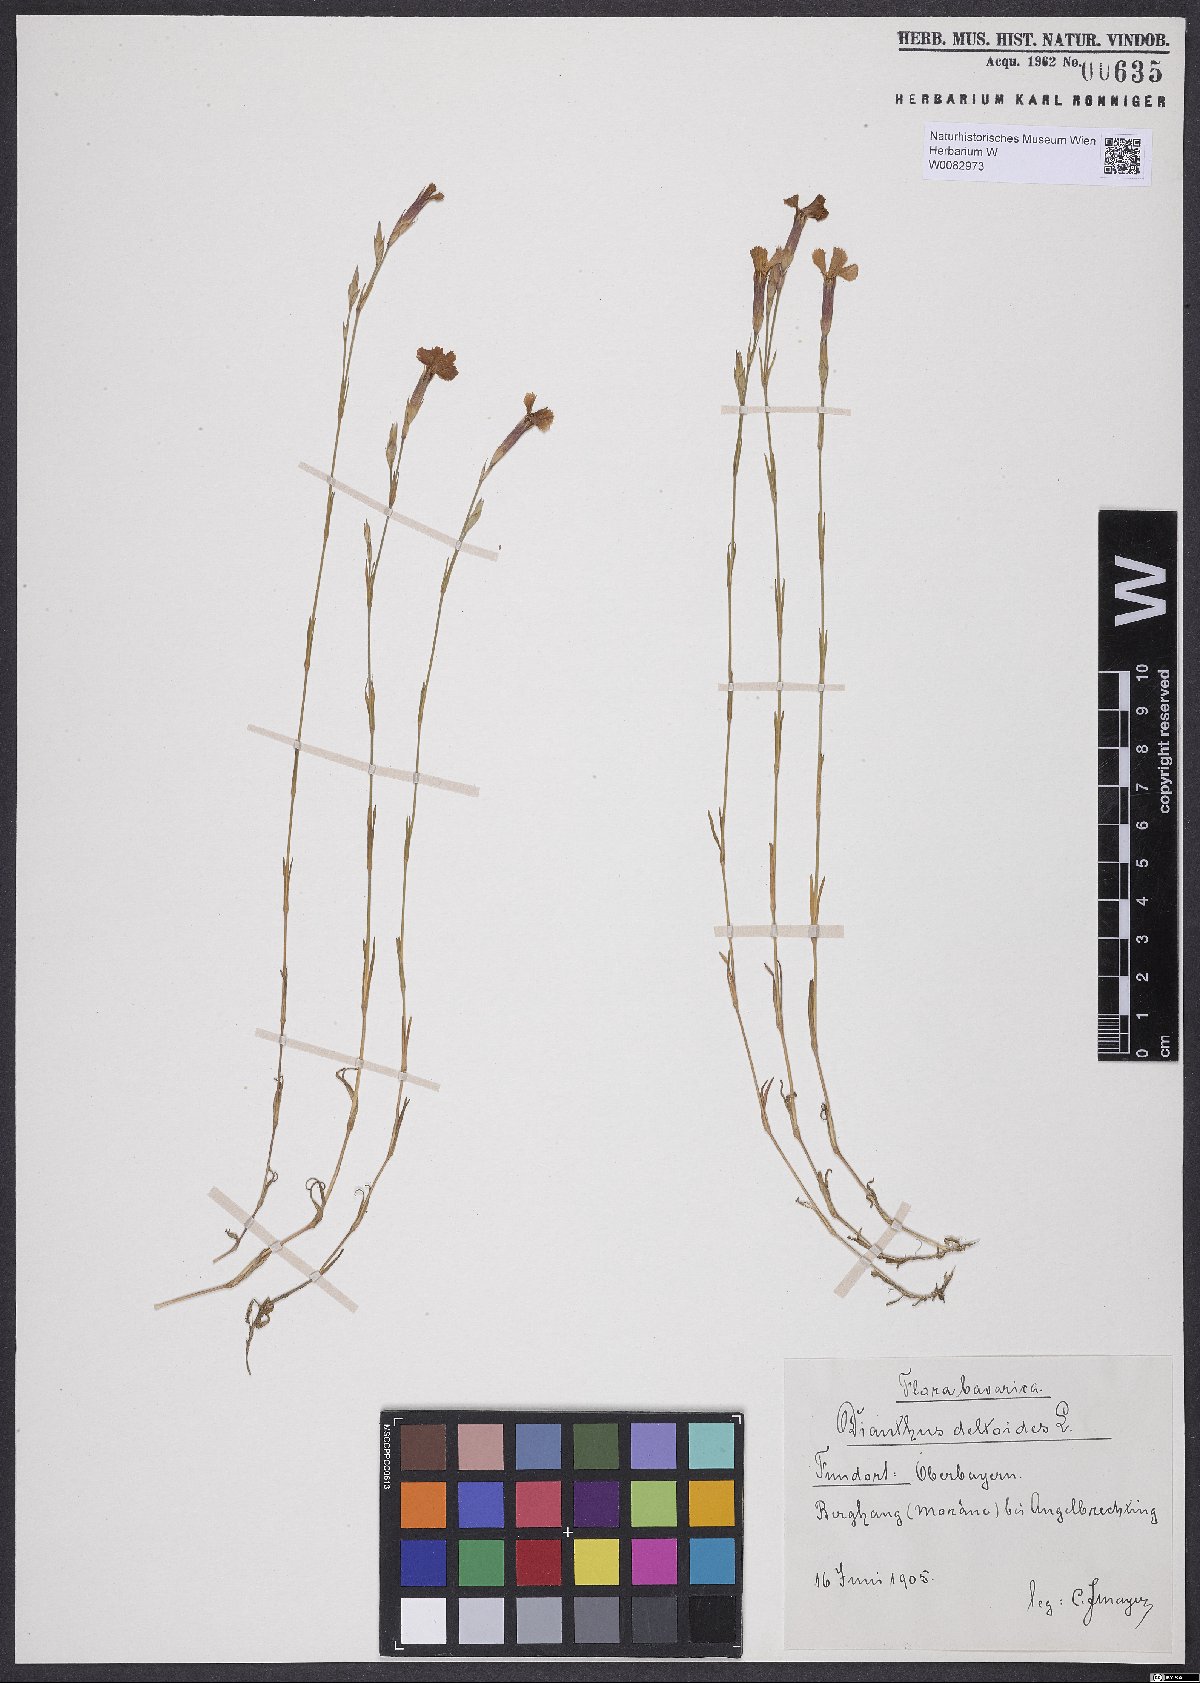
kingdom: Plantae
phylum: Tracheophyta
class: Magnoliopsida
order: Caryophyllales
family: Caryophyllaceae
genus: Dianthus
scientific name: Dianthus deltoides
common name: Maiden pink
